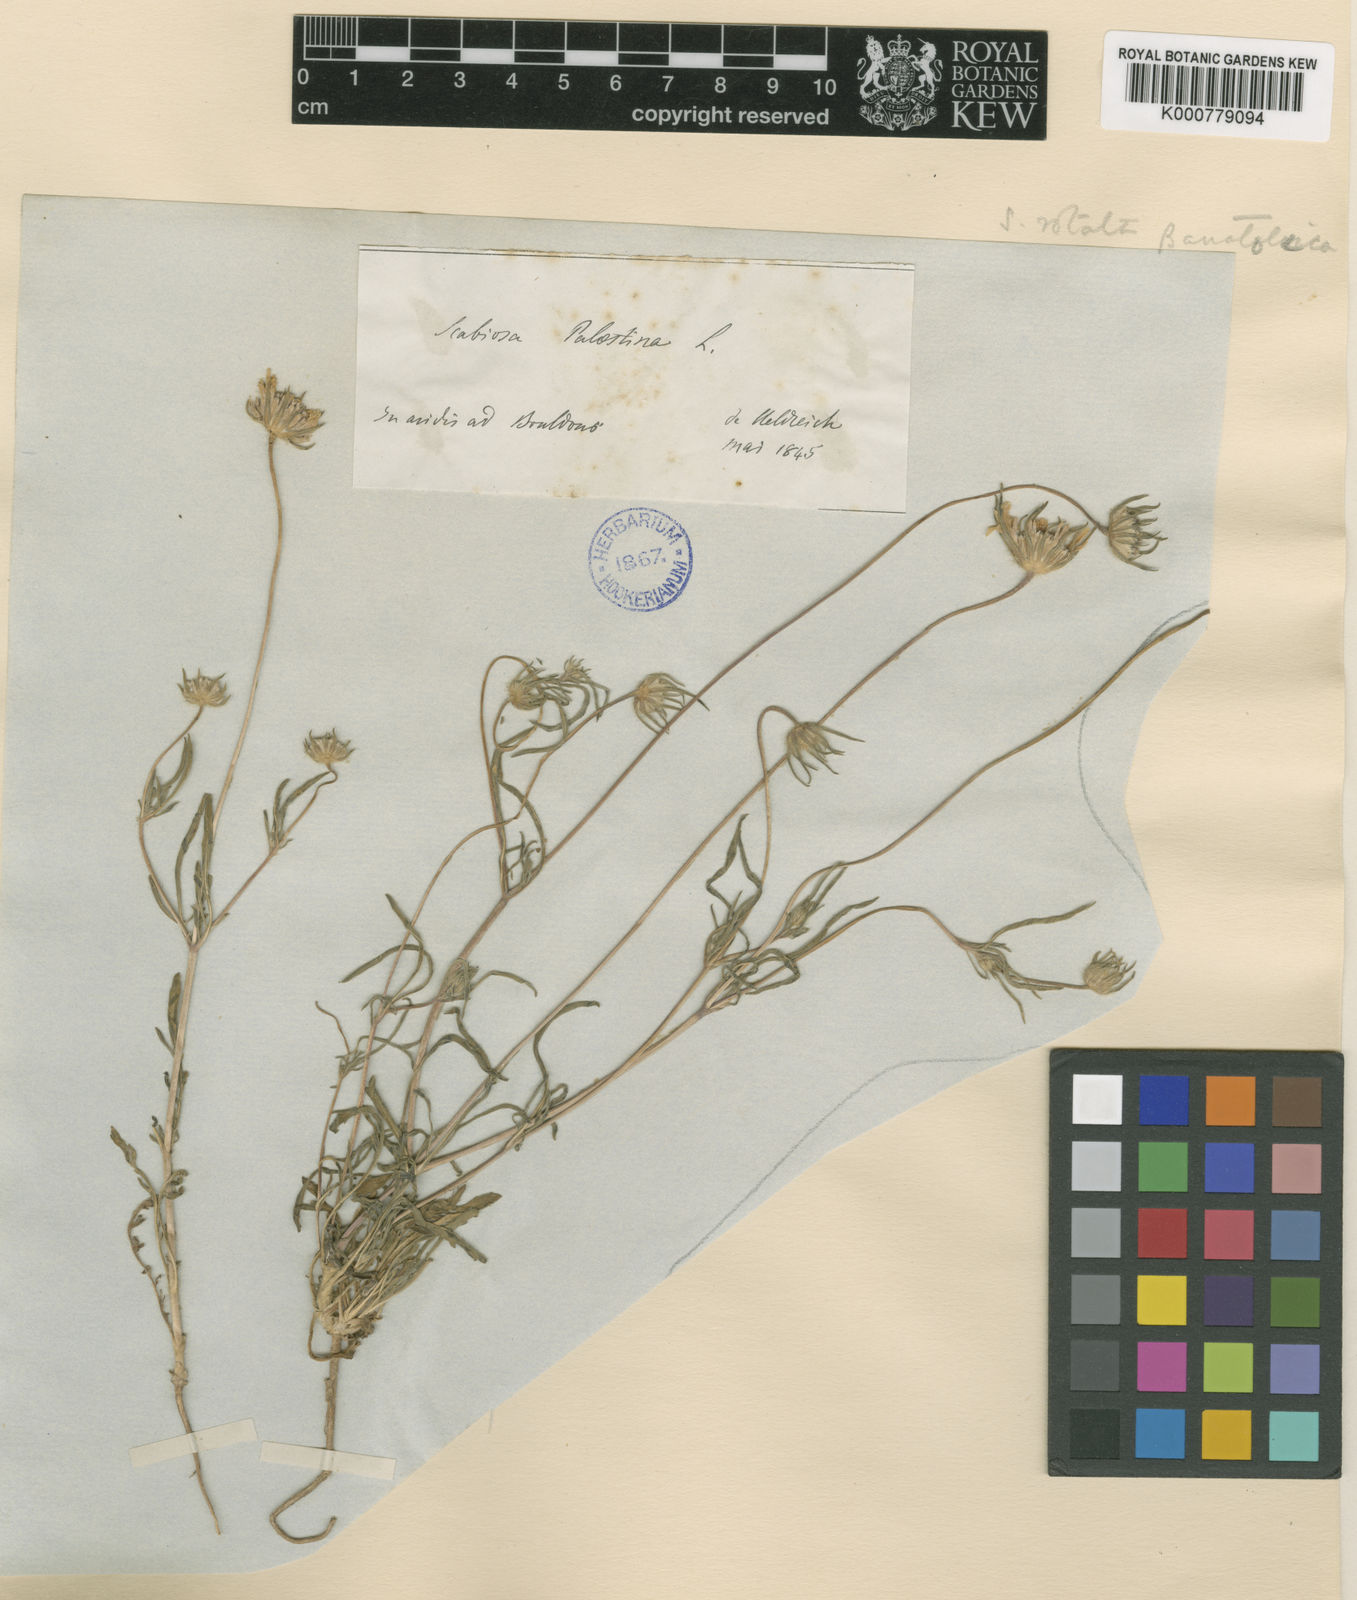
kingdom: Plantae
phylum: Tracheophyta
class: Magnoliopsida
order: Dipsacales
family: Caprifoliaceae
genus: Lomelosia
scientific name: Lomelosia rotata
